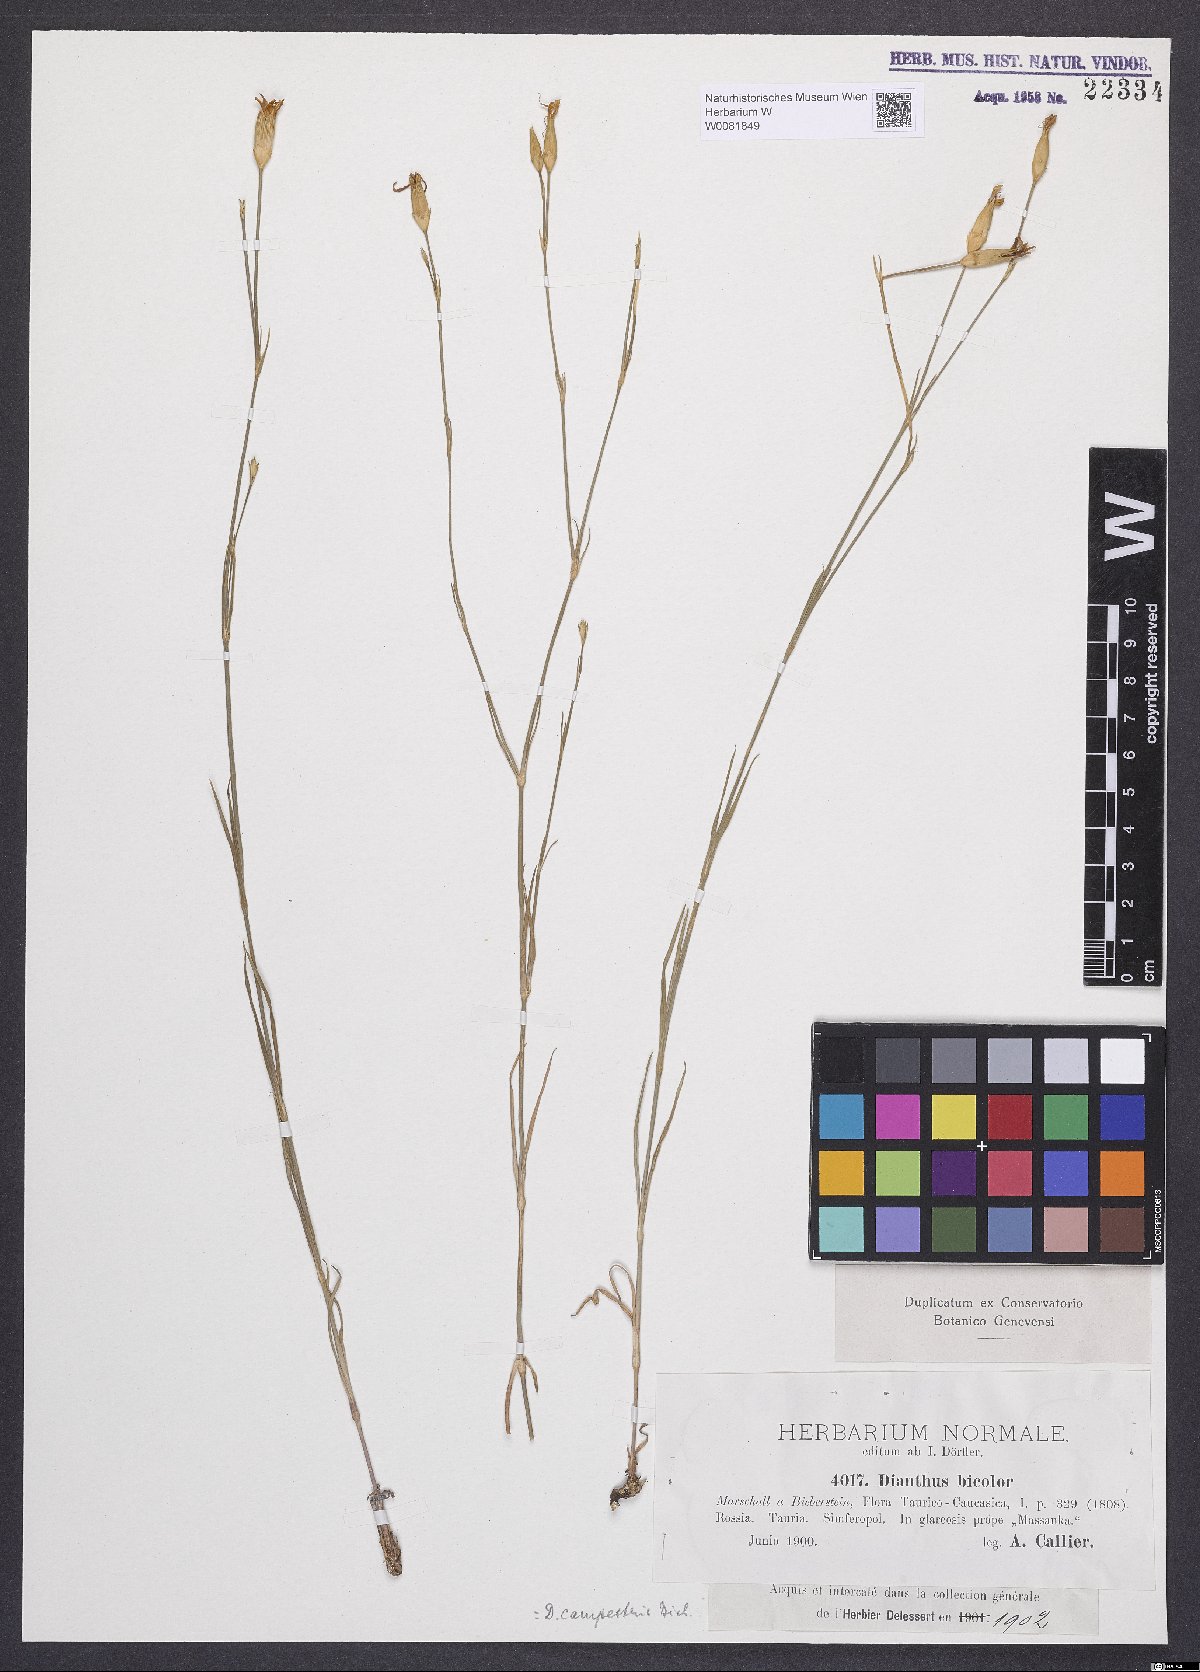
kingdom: Plantae
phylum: Tracheophyta
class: Magnoliopsida
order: Caryophyllales
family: Caryophyllaceae
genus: Dianthus
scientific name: Dianthus campestris
